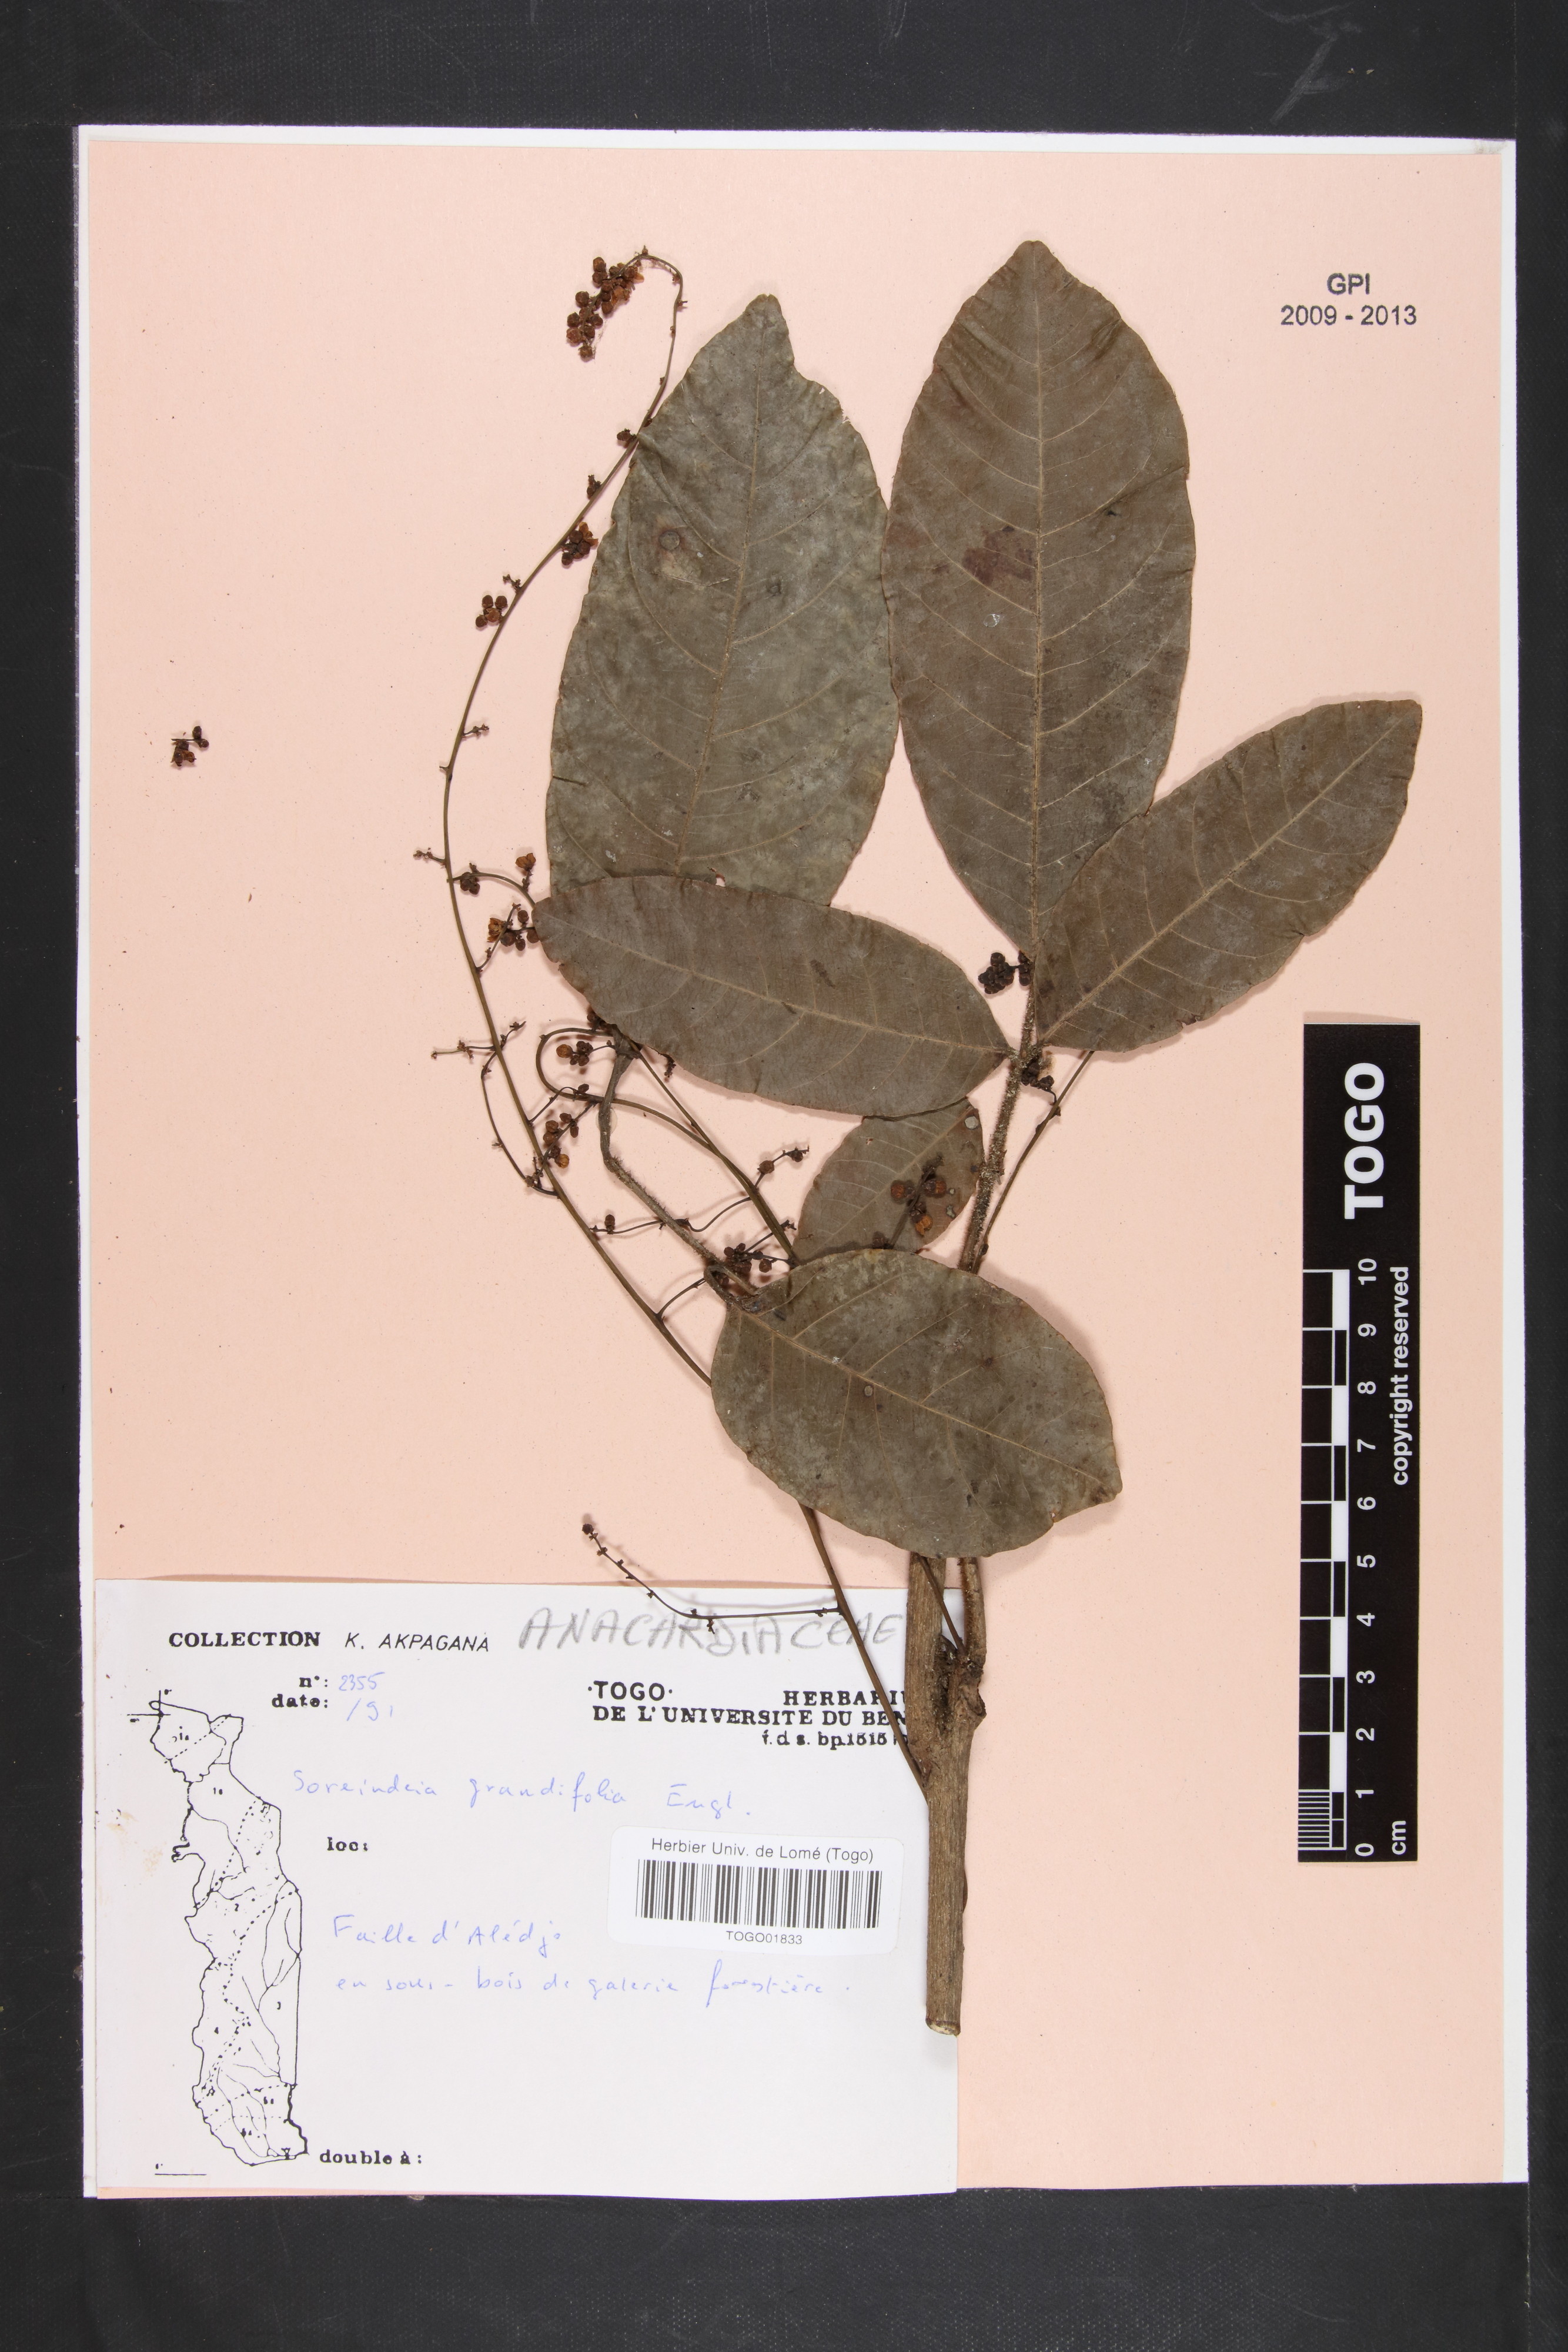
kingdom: Plantae
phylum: Tracheophyta
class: Magnoliopsida
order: Sapindales
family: Anacardiaceae
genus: Sorindeia
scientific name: Sorindeia grandifolia
